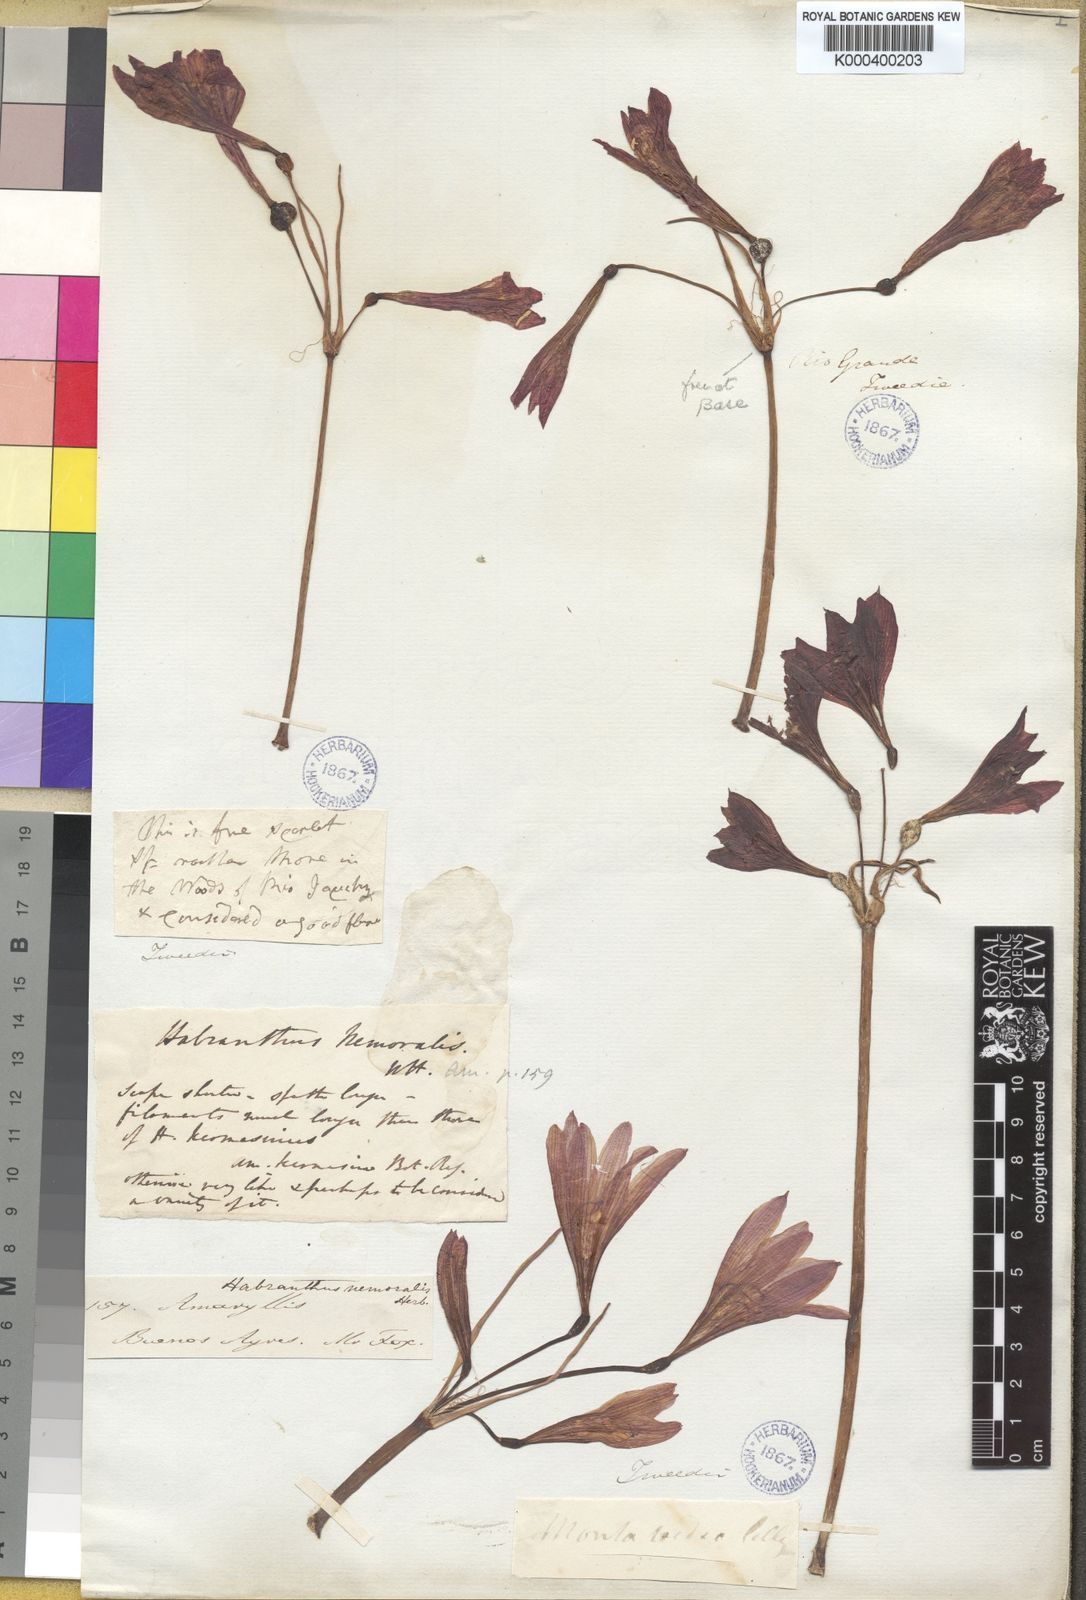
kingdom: Plantae
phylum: Tracheophyta
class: Liliopsida
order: Asparagales
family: Amaryllidaceae
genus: Zephyranthes
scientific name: Zephyranthes bifida
